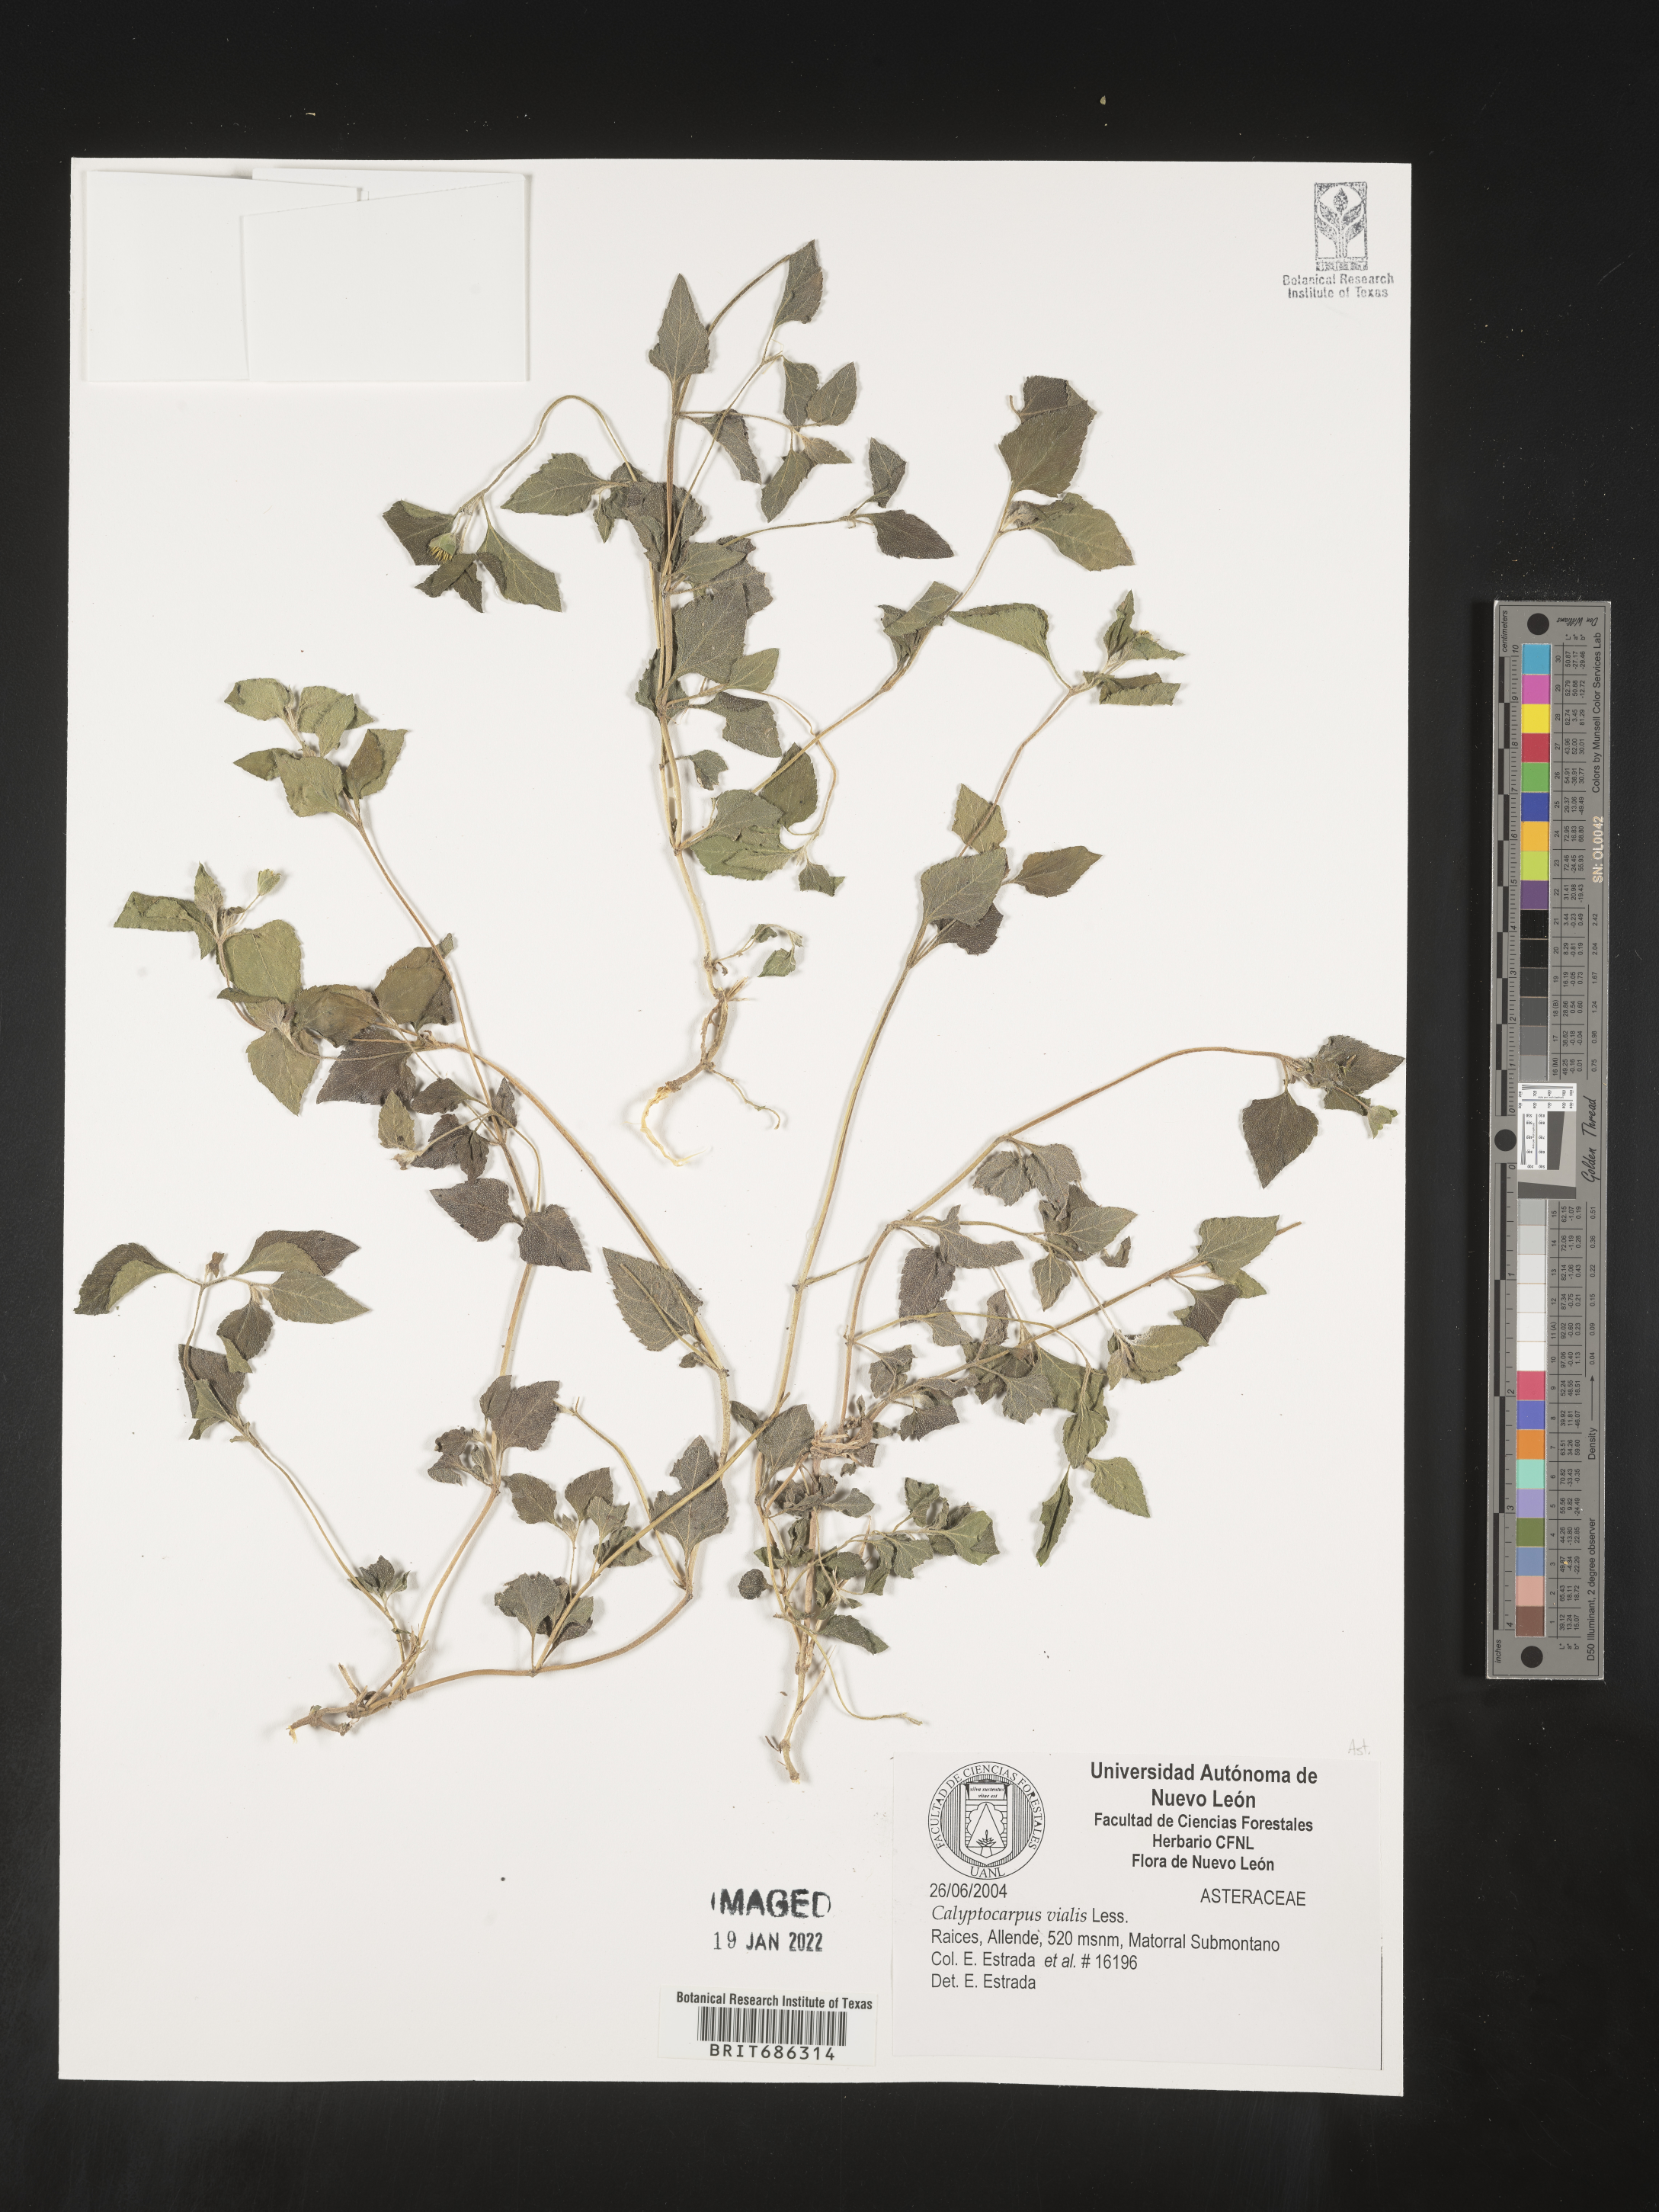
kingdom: Plantae
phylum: Tracheophyta
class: Magnoliopsida
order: Asterales
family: Asteraceae
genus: Calyptocarpus
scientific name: Calyptocarpus
